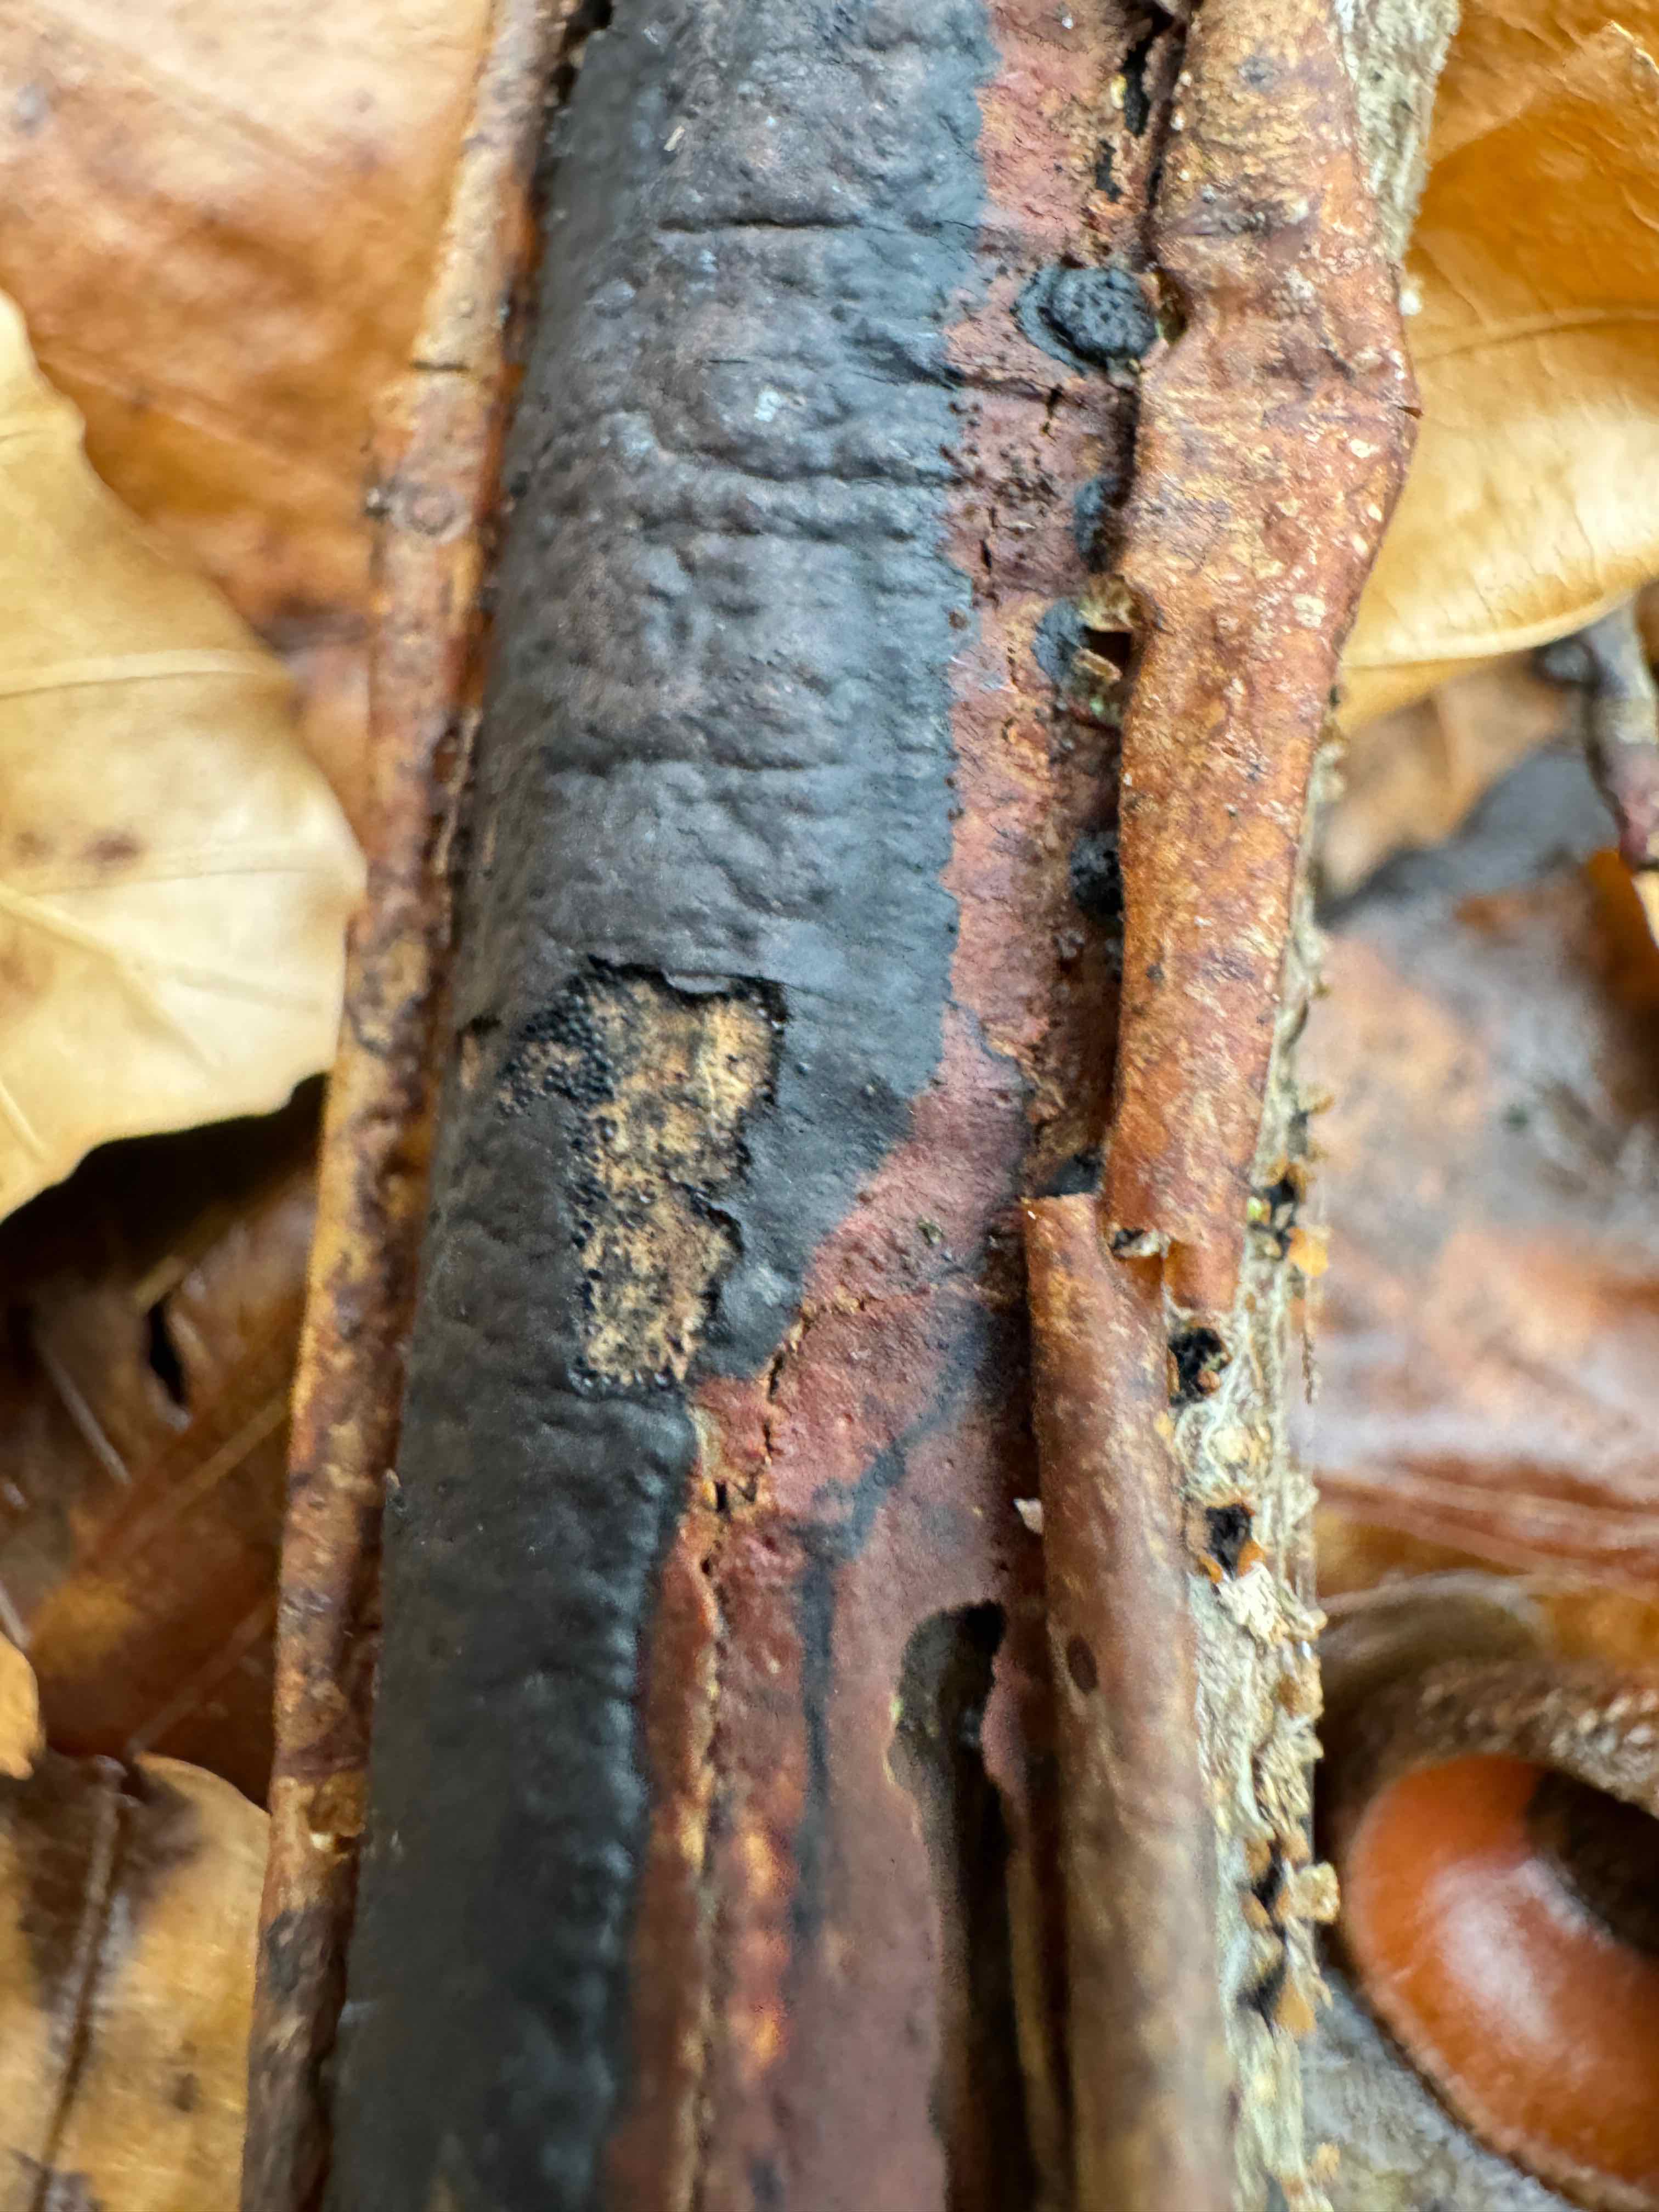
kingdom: Fungi
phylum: Ascomycota
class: Sordariomycetes
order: Xylariales
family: Diatrypaceae
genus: Diatrype
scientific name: Diatrype decorticata
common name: barksprænger-kulskorpe
